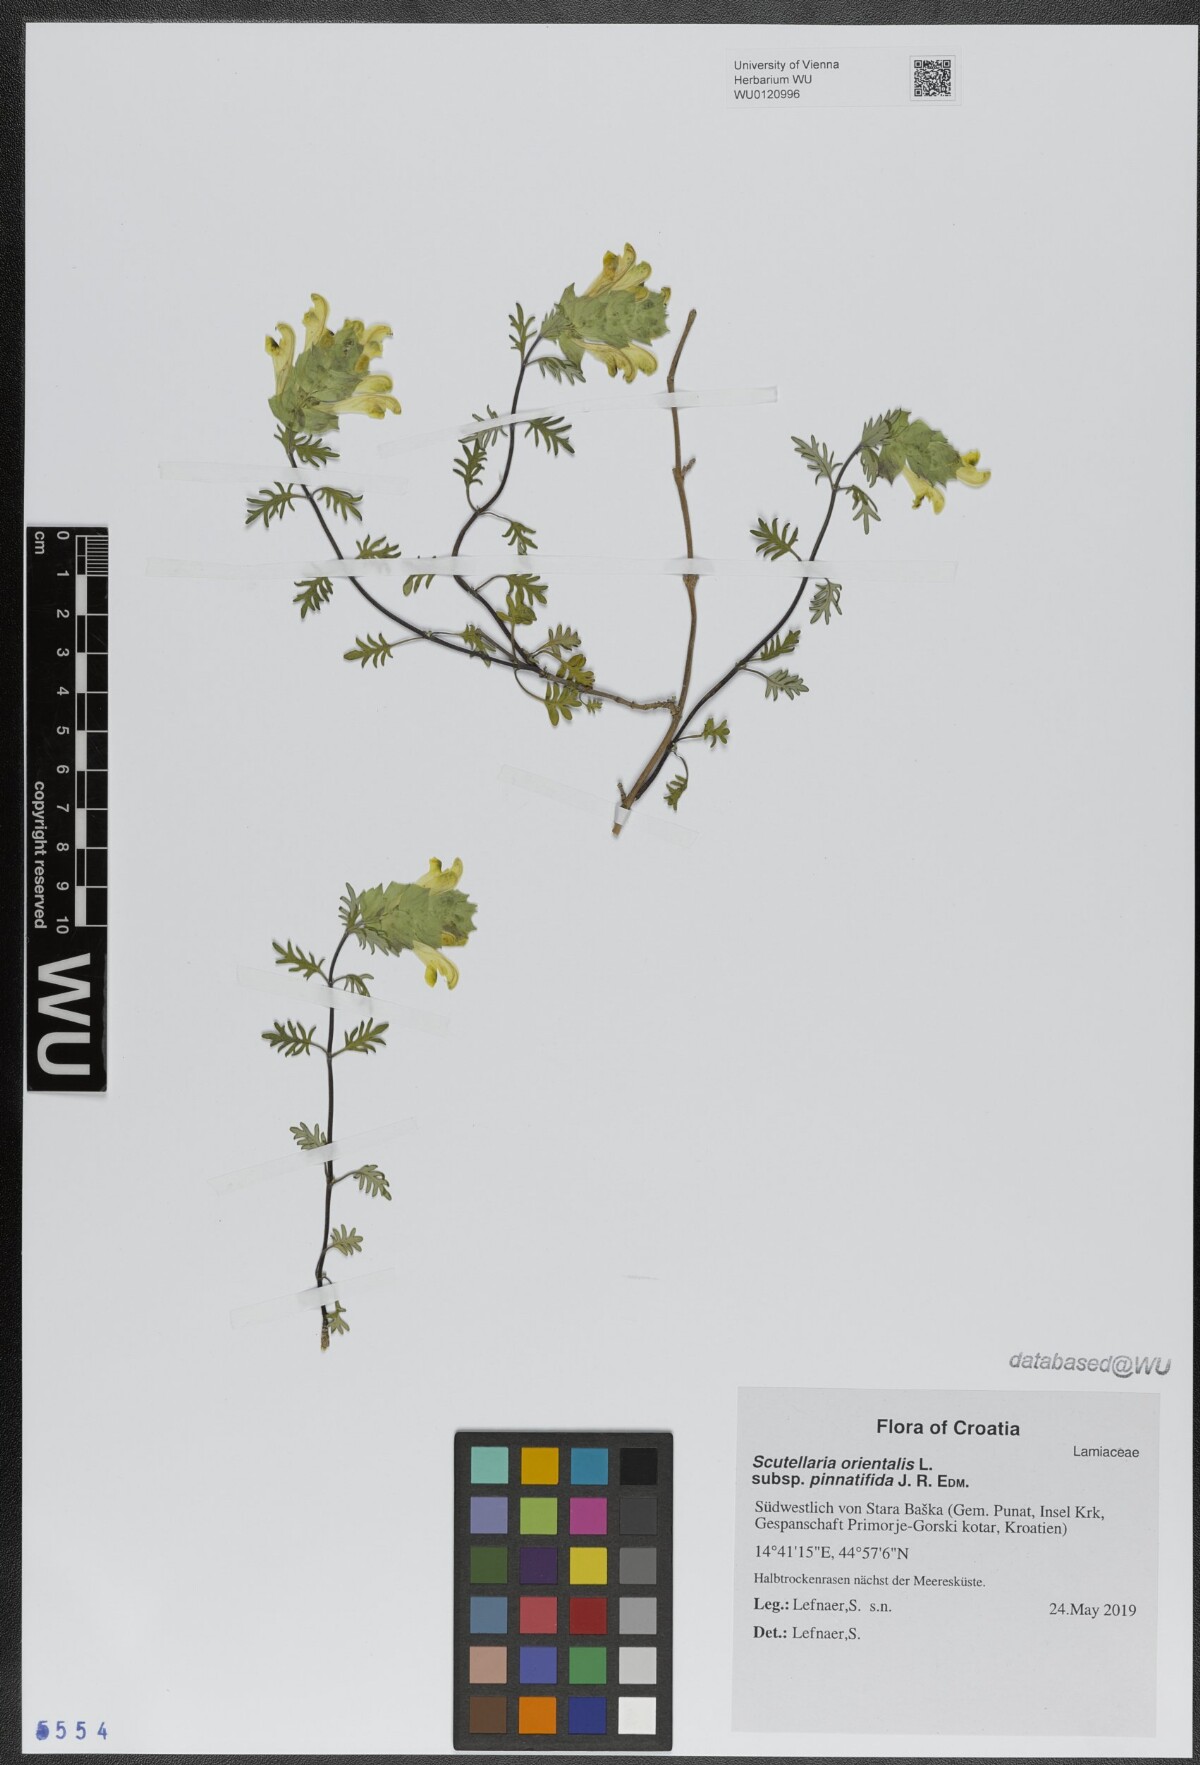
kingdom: Plantae
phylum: Tracheophyta
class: Magnoliopsida
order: Lamiales
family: Lamiaceae
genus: Scutellaria
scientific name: Scutellaria orientalis
